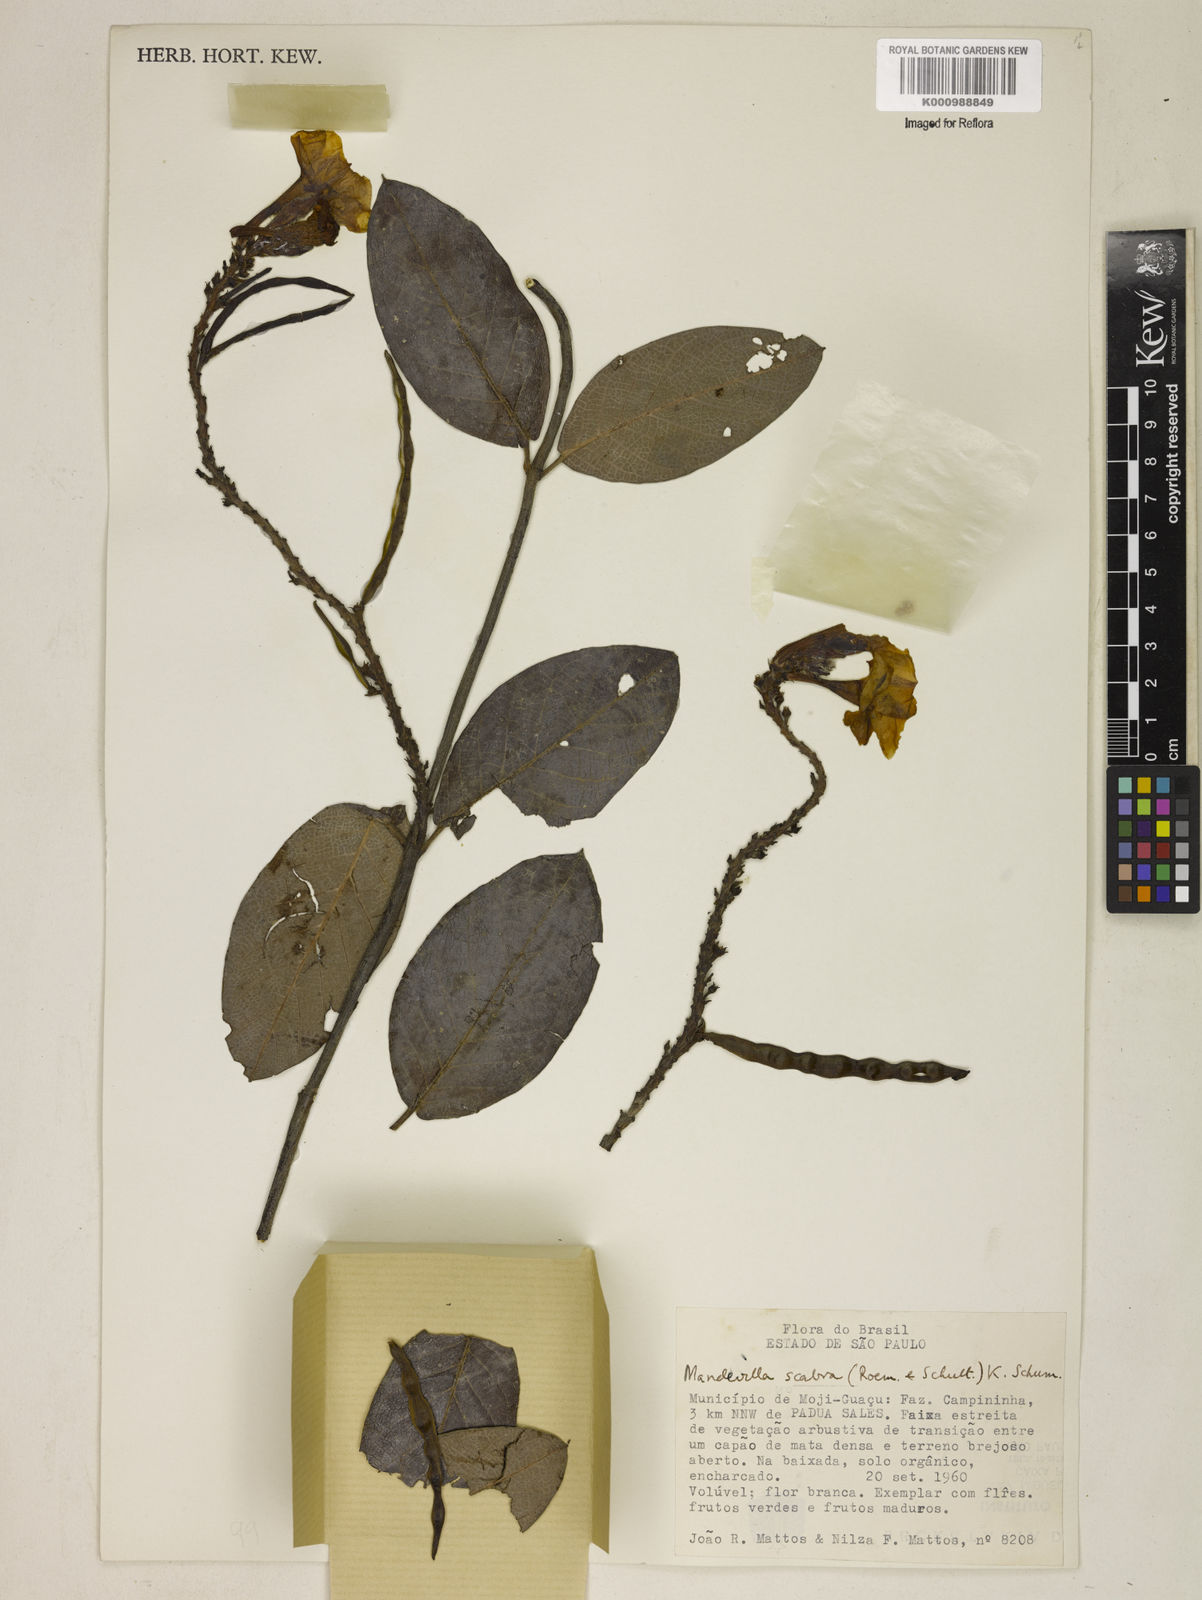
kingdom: Plantae
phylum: Tracheophyta
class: Magnoliopsida
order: Gentianales
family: Apocynaceae
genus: Mandevilla
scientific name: Mandevilla scabra
